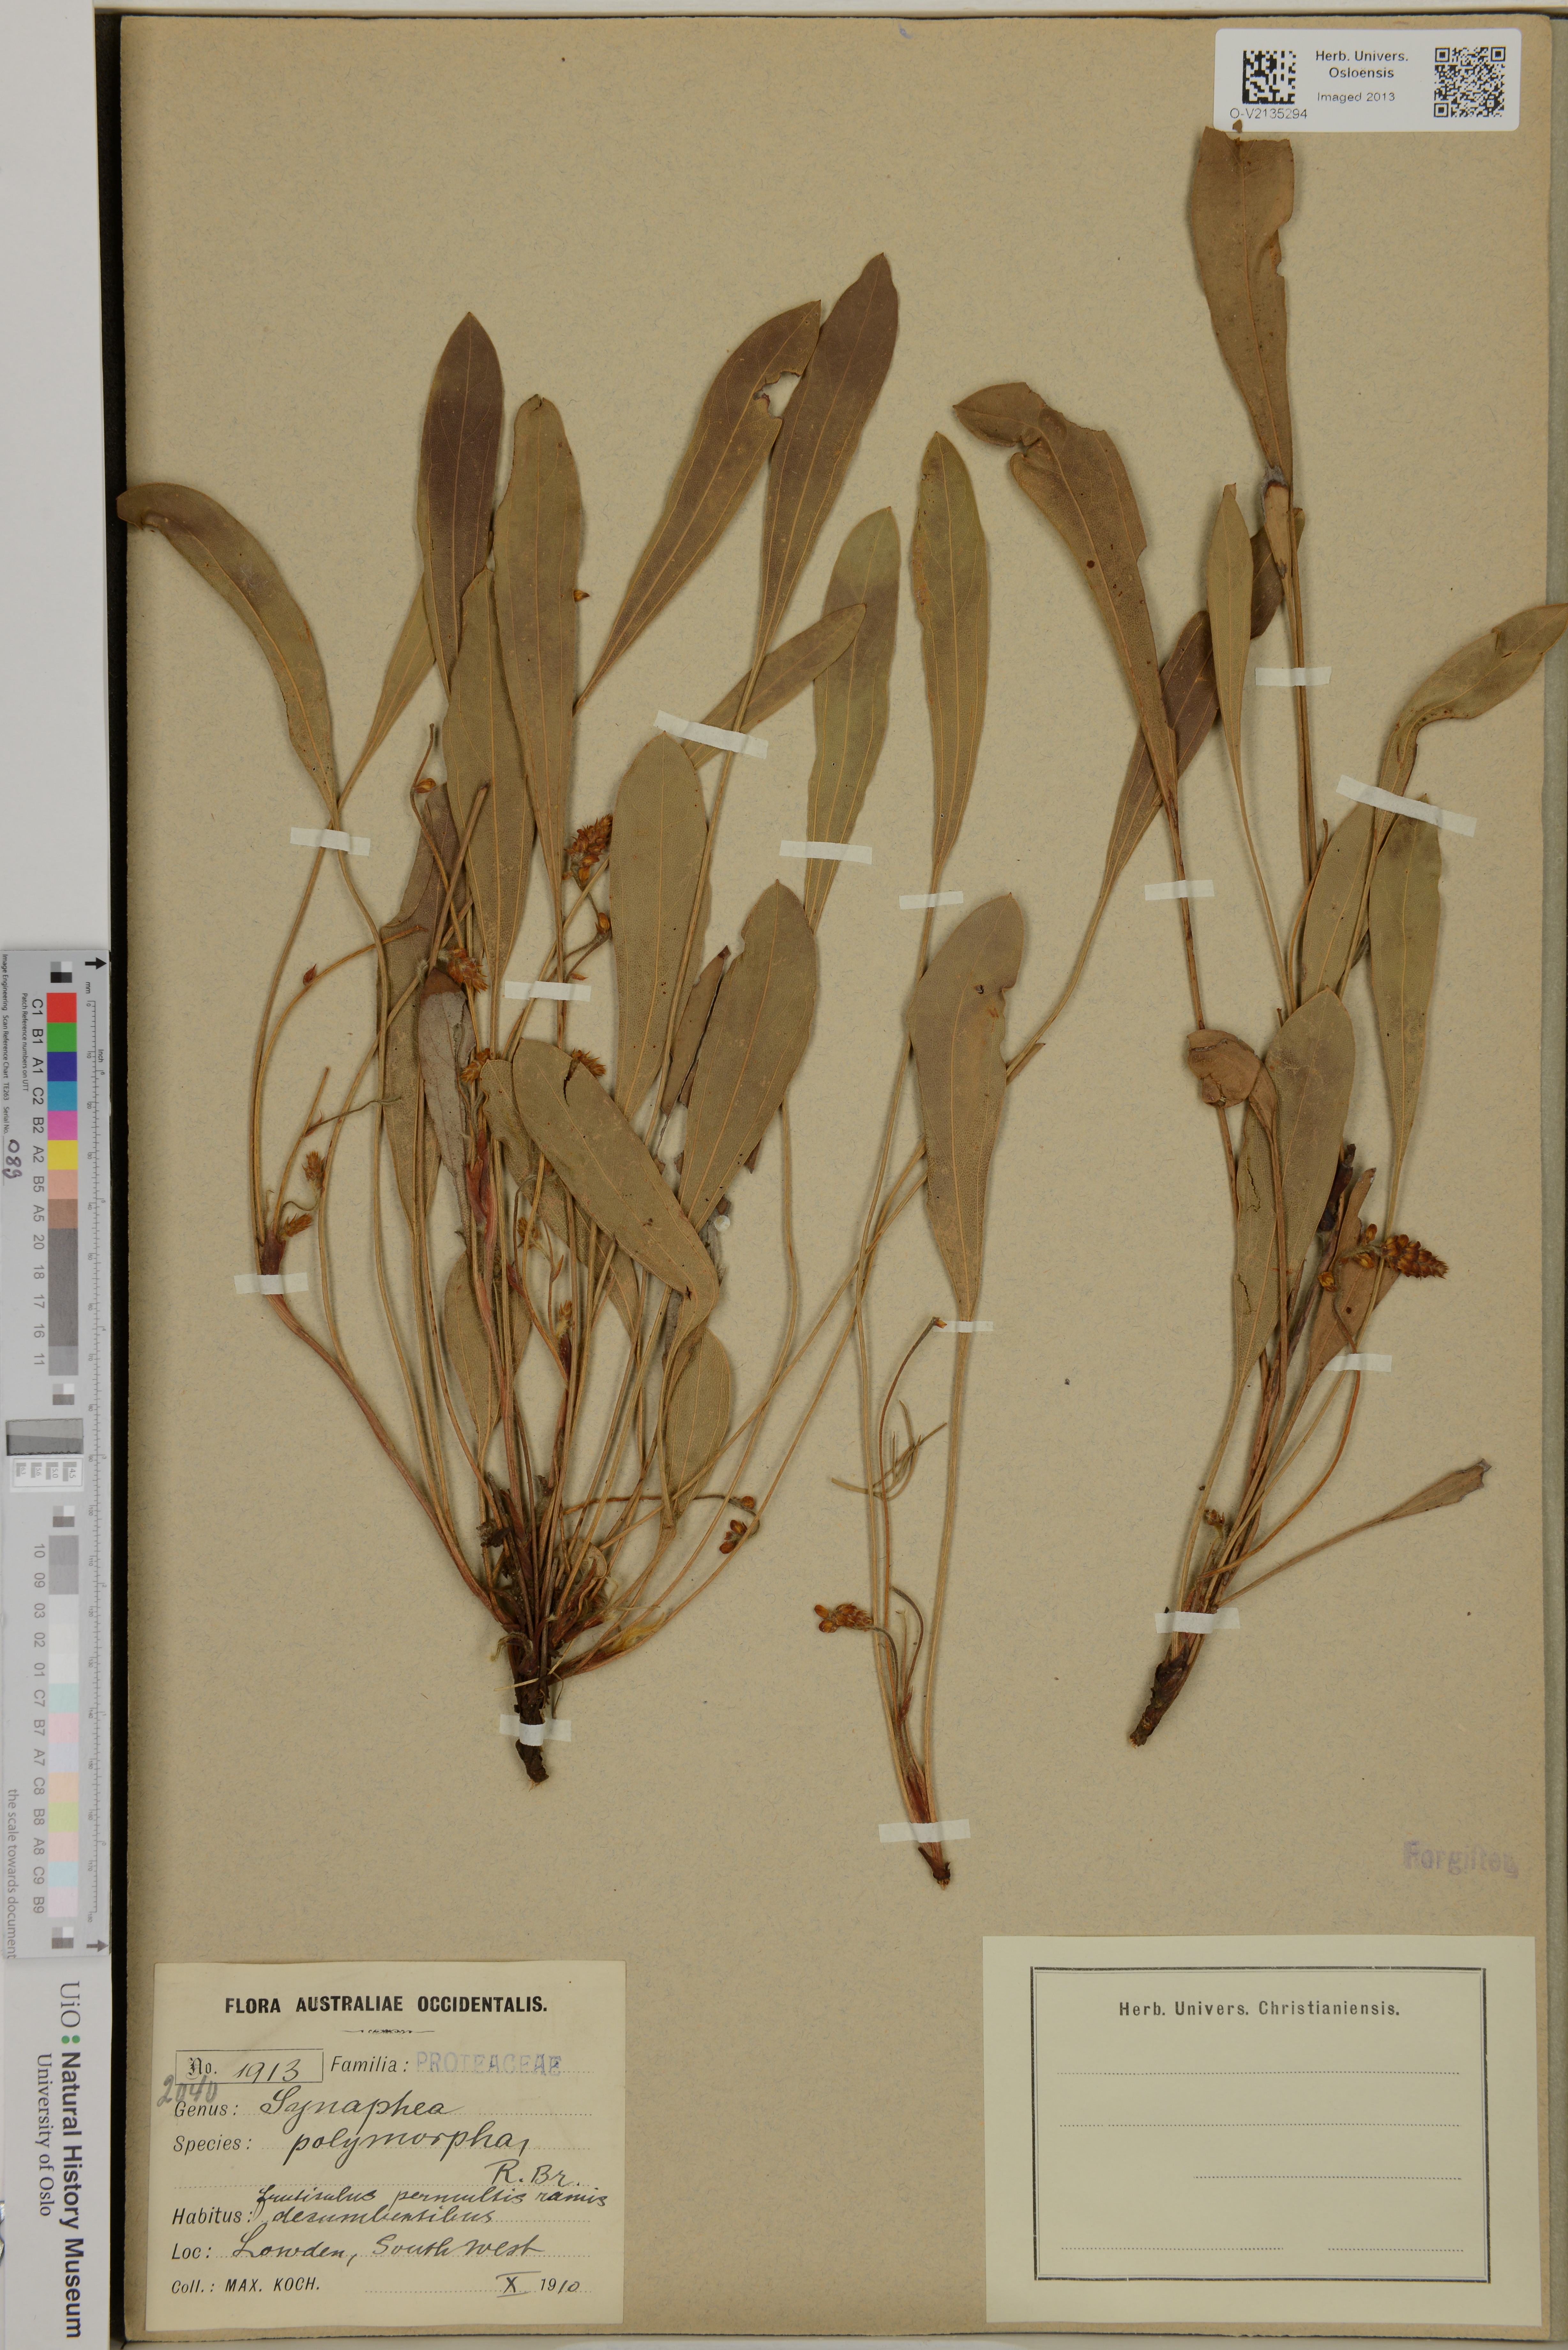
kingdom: Plantae
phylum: Tracheophyta
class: Magnoliopsida
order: Proteales
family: Proteaceae
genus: Synaphea
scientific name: Synaphea polymorpha
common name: Albany synaphea
